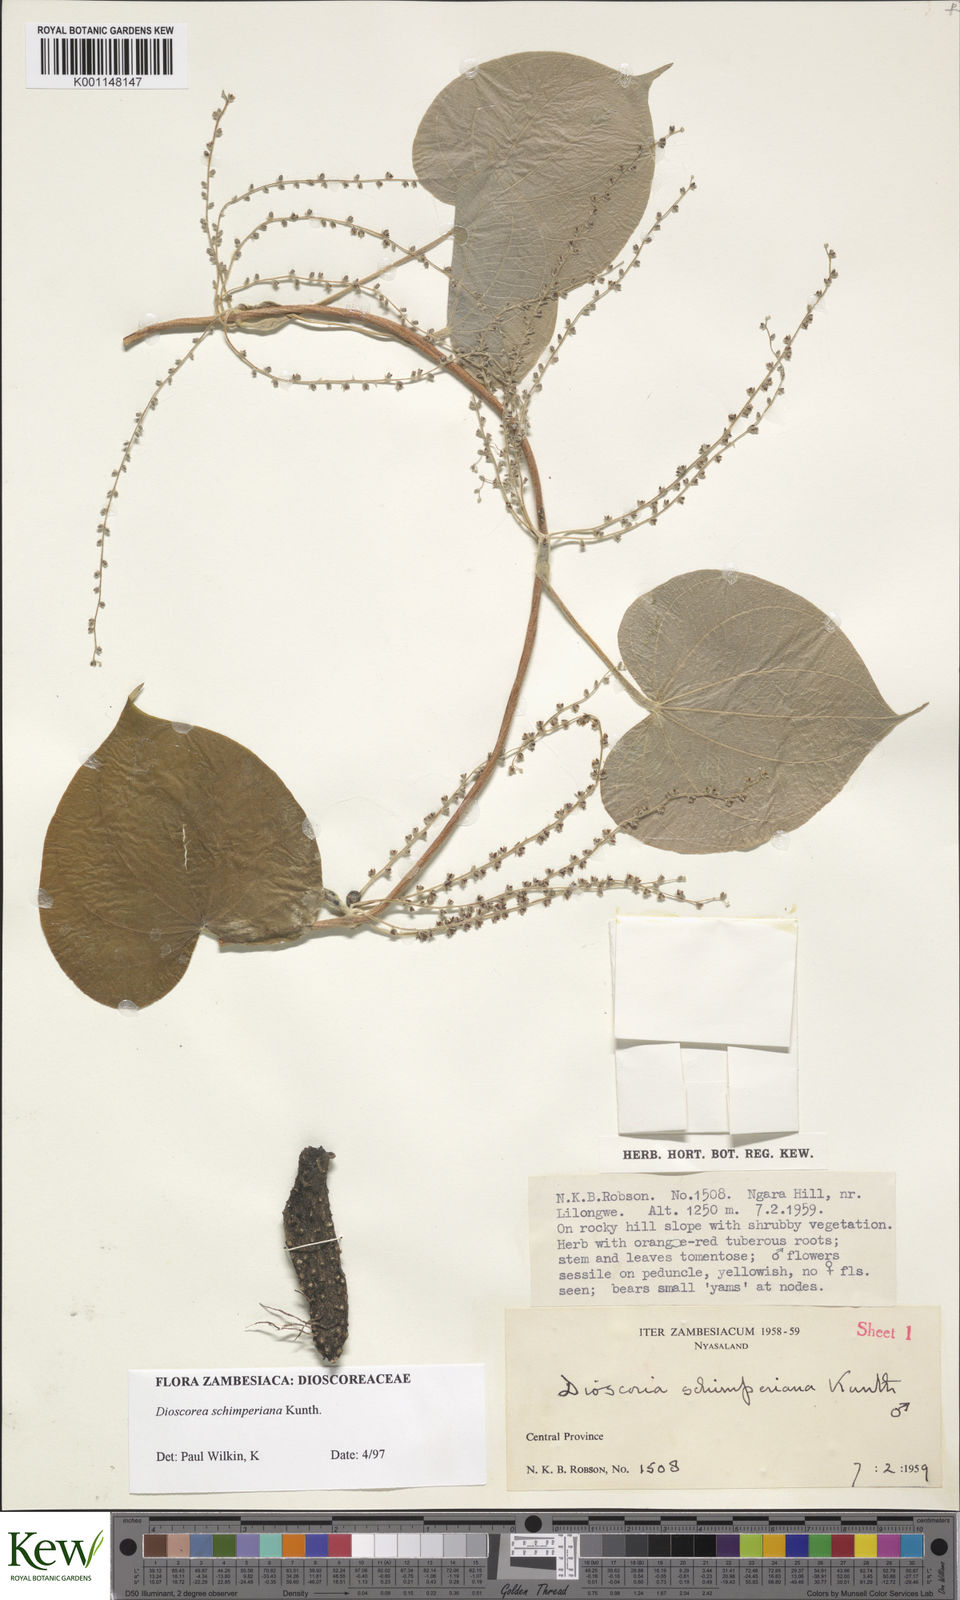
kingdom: Plantae
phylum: Tracheophyta
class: Liliopsida
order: Dioscoreales
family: Dioscoreaceae
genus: Dioscorea
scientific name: Dioscorea schimperiana
